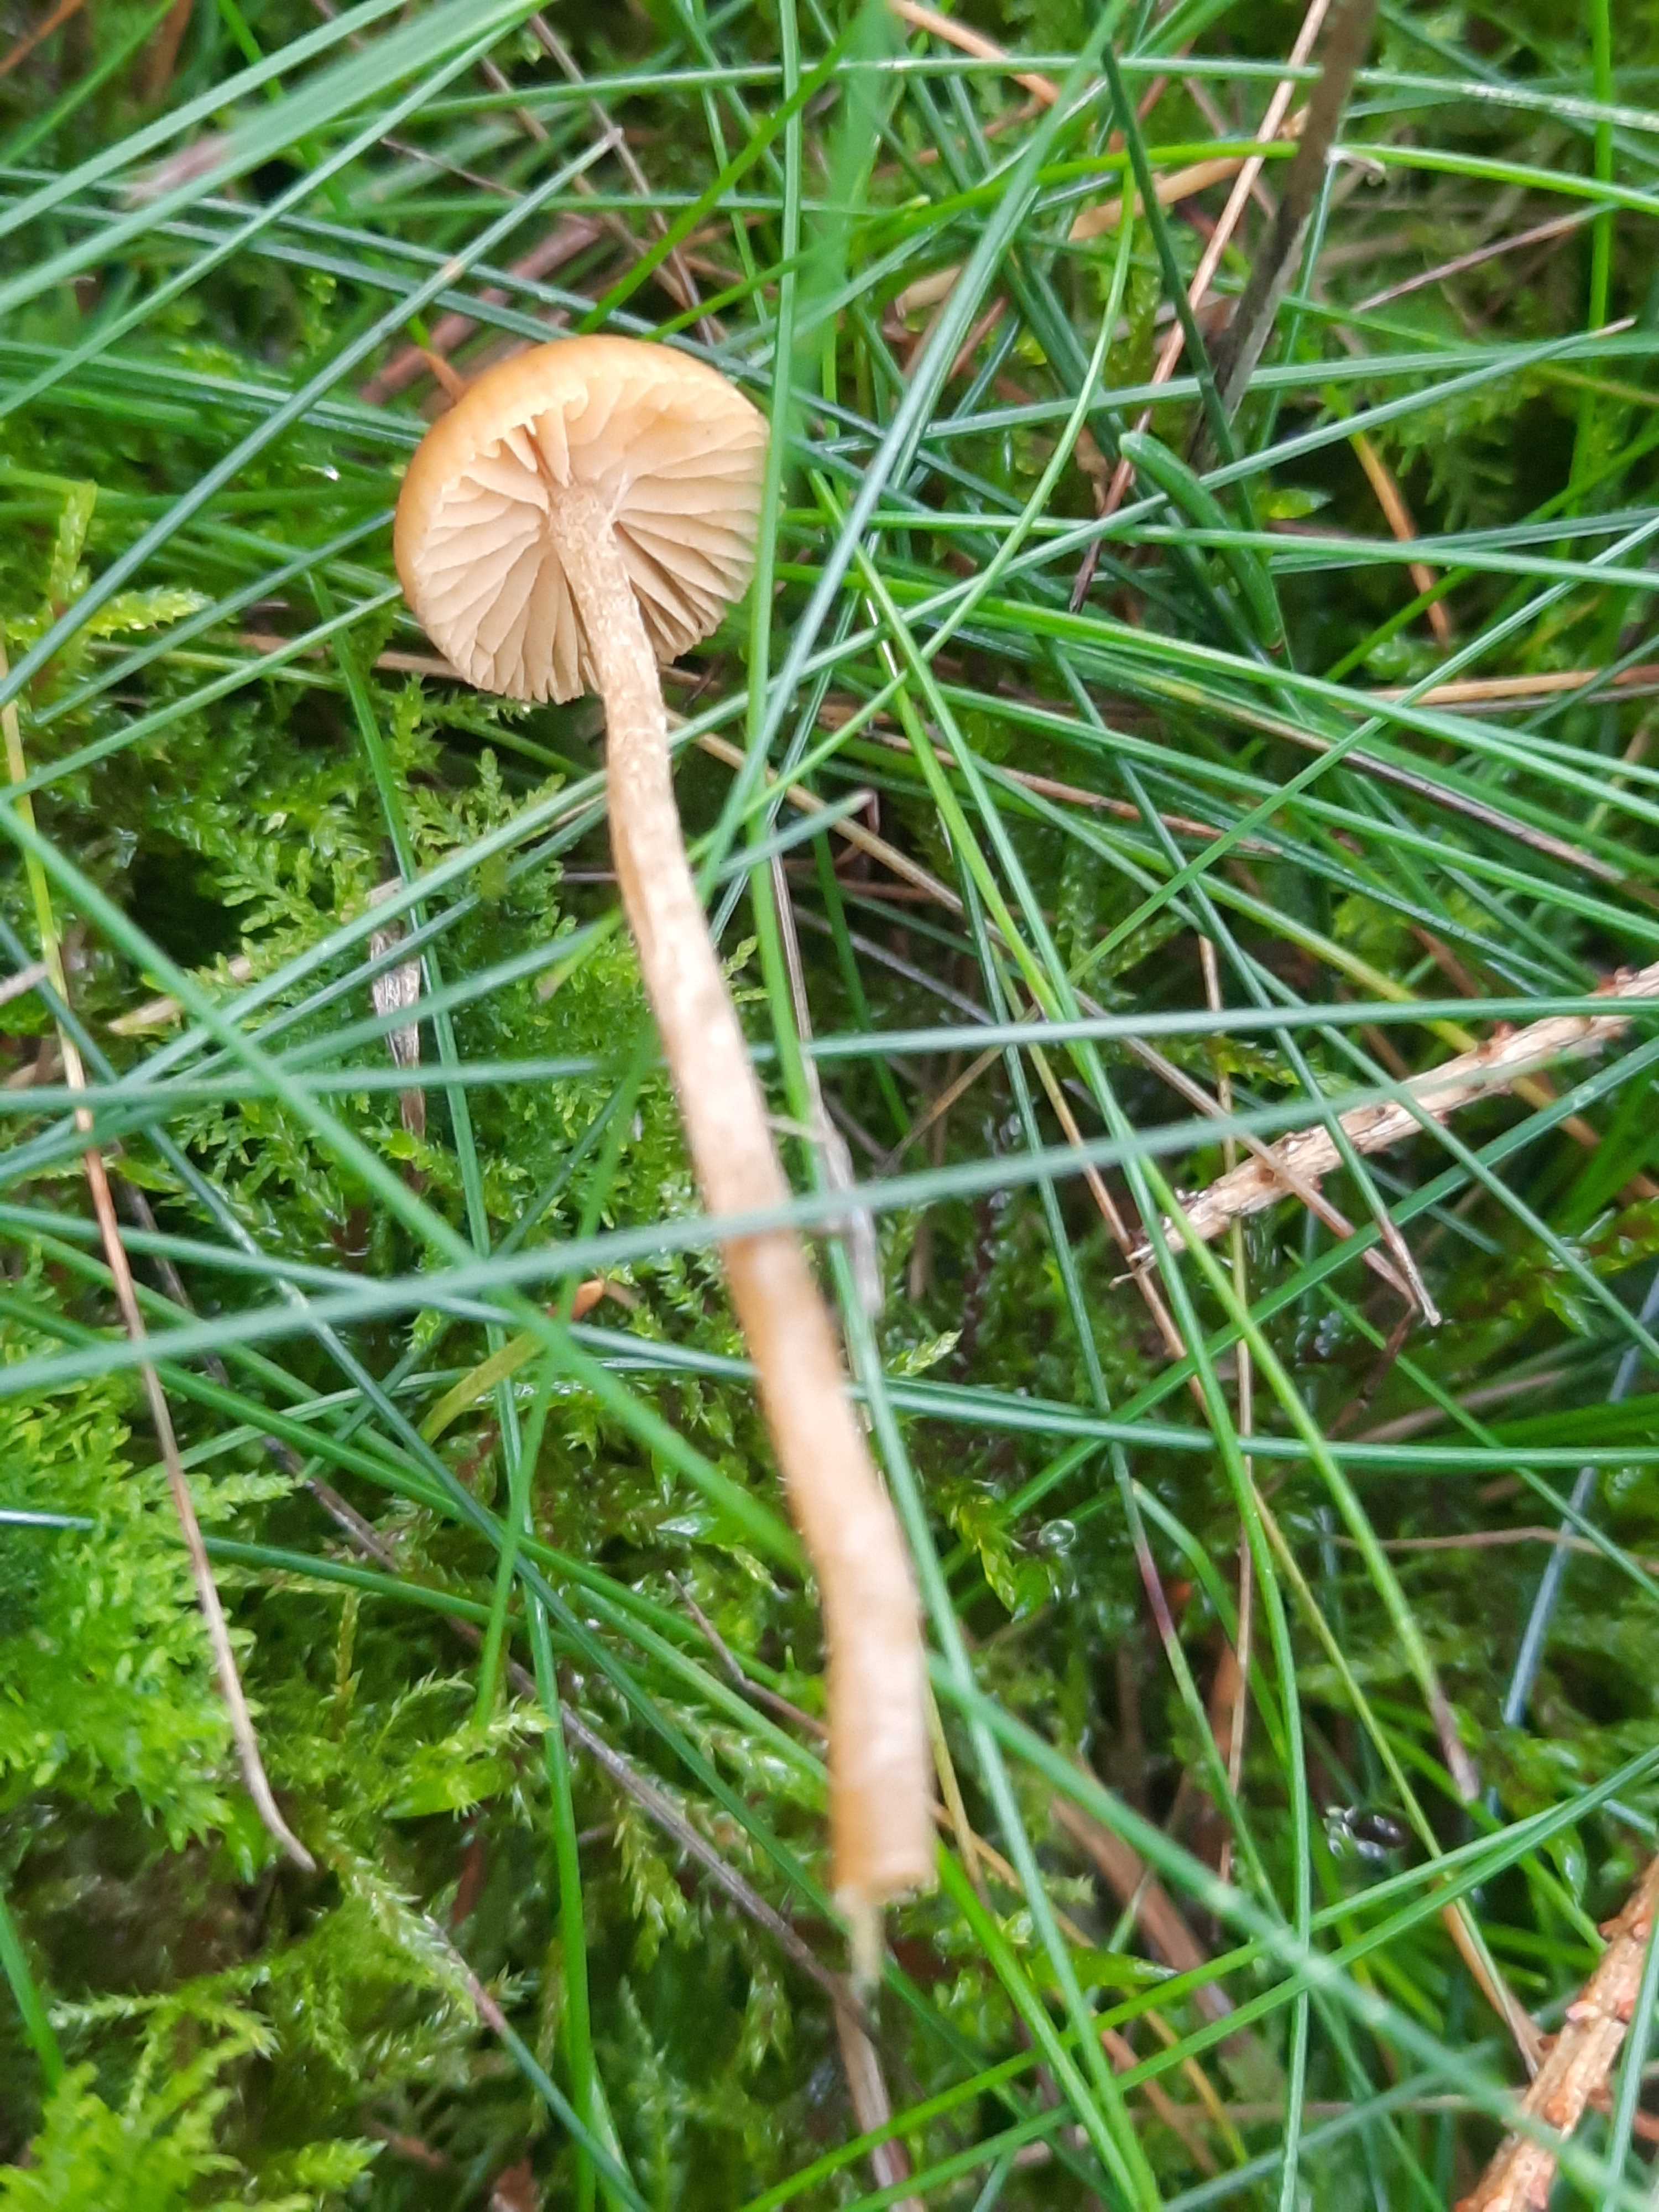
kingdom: Fungi
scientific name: Fungi
